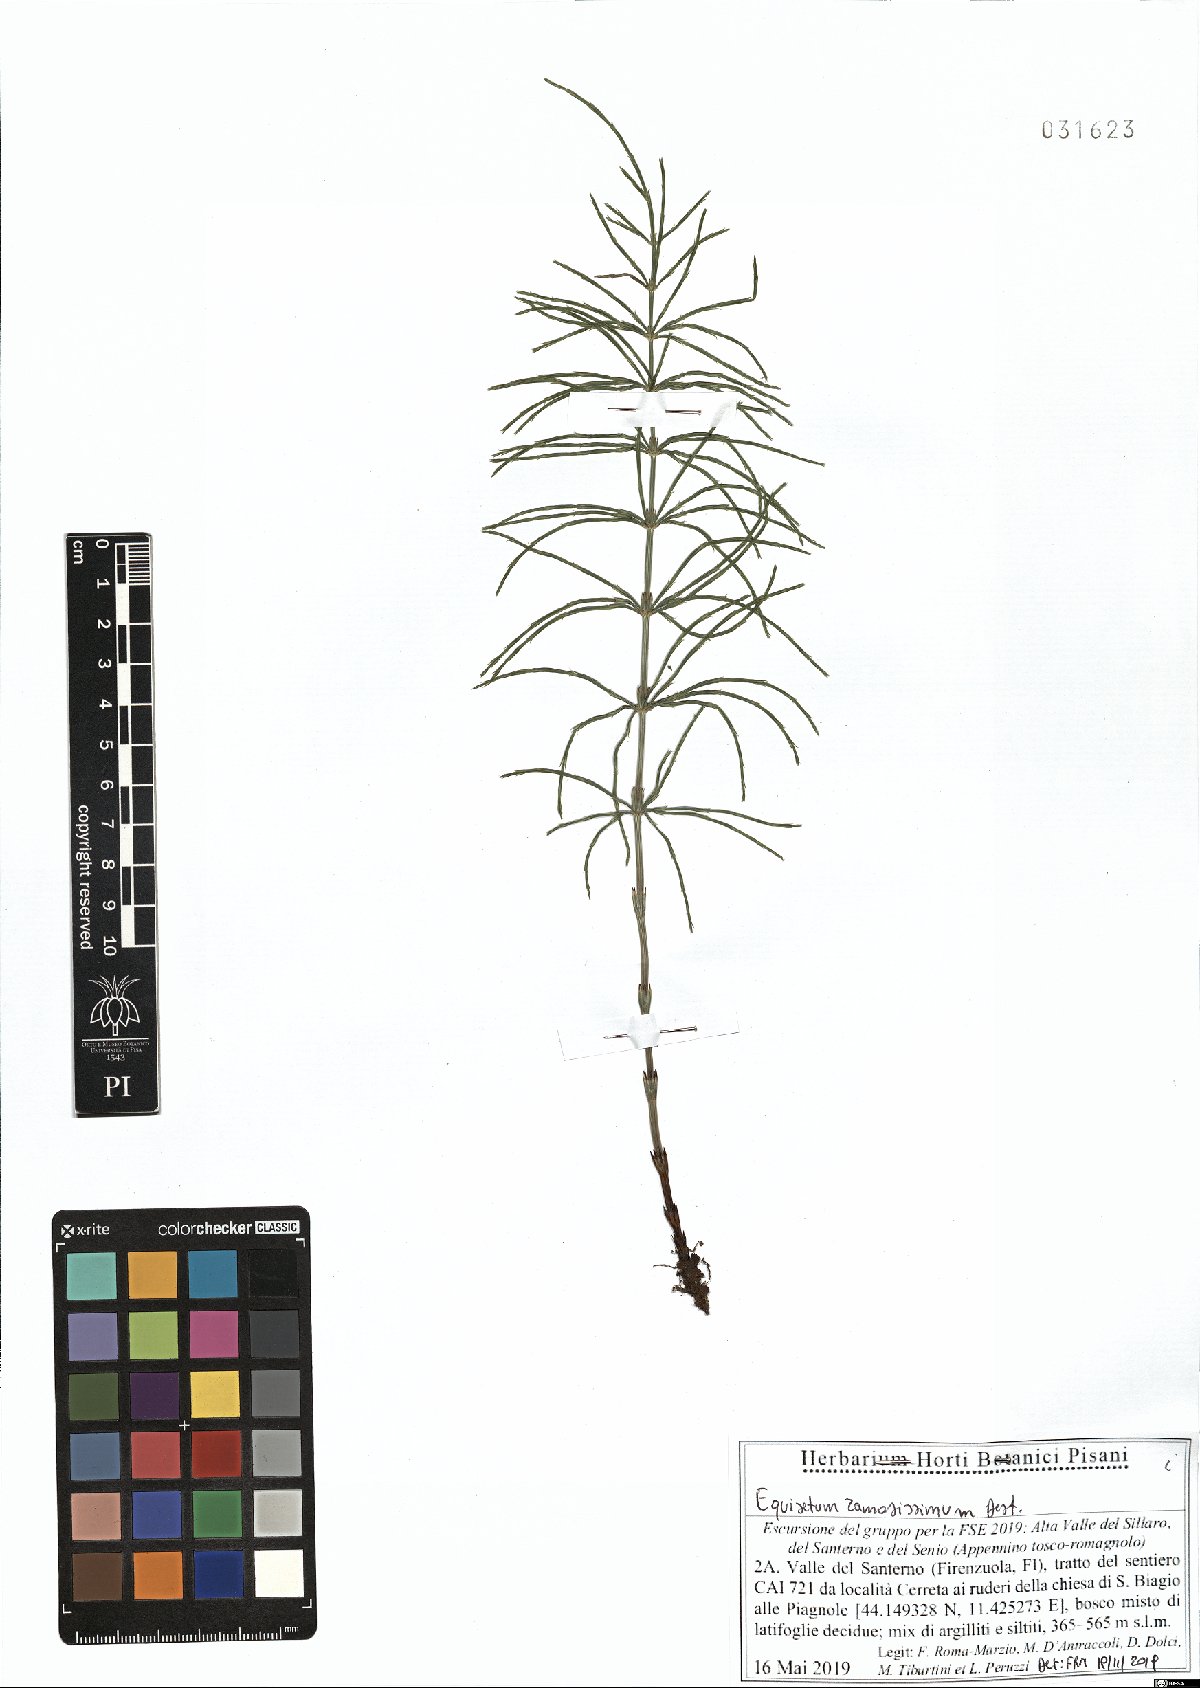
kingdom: Plantae
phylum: Tracheophyta
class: Polypodiopsida
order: Equisetales
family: Equisetaceae
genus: Equisetum
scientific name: Equisetum ramosissimum
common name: Branched horsetail
